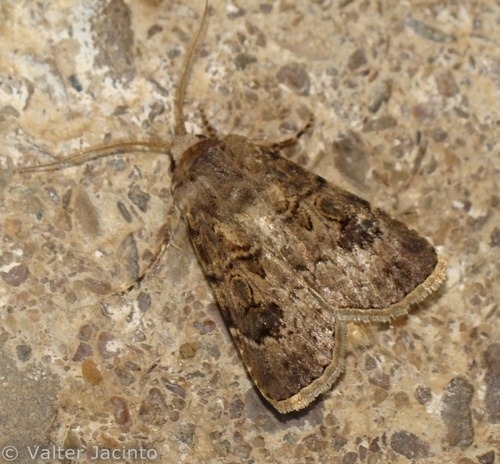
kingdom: Animalia
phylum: Arthropoda
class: Insecta
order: Lepidoptera
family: Noctuidae
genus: Agrotis
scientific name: Agrotis bigramma
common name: Great dart
